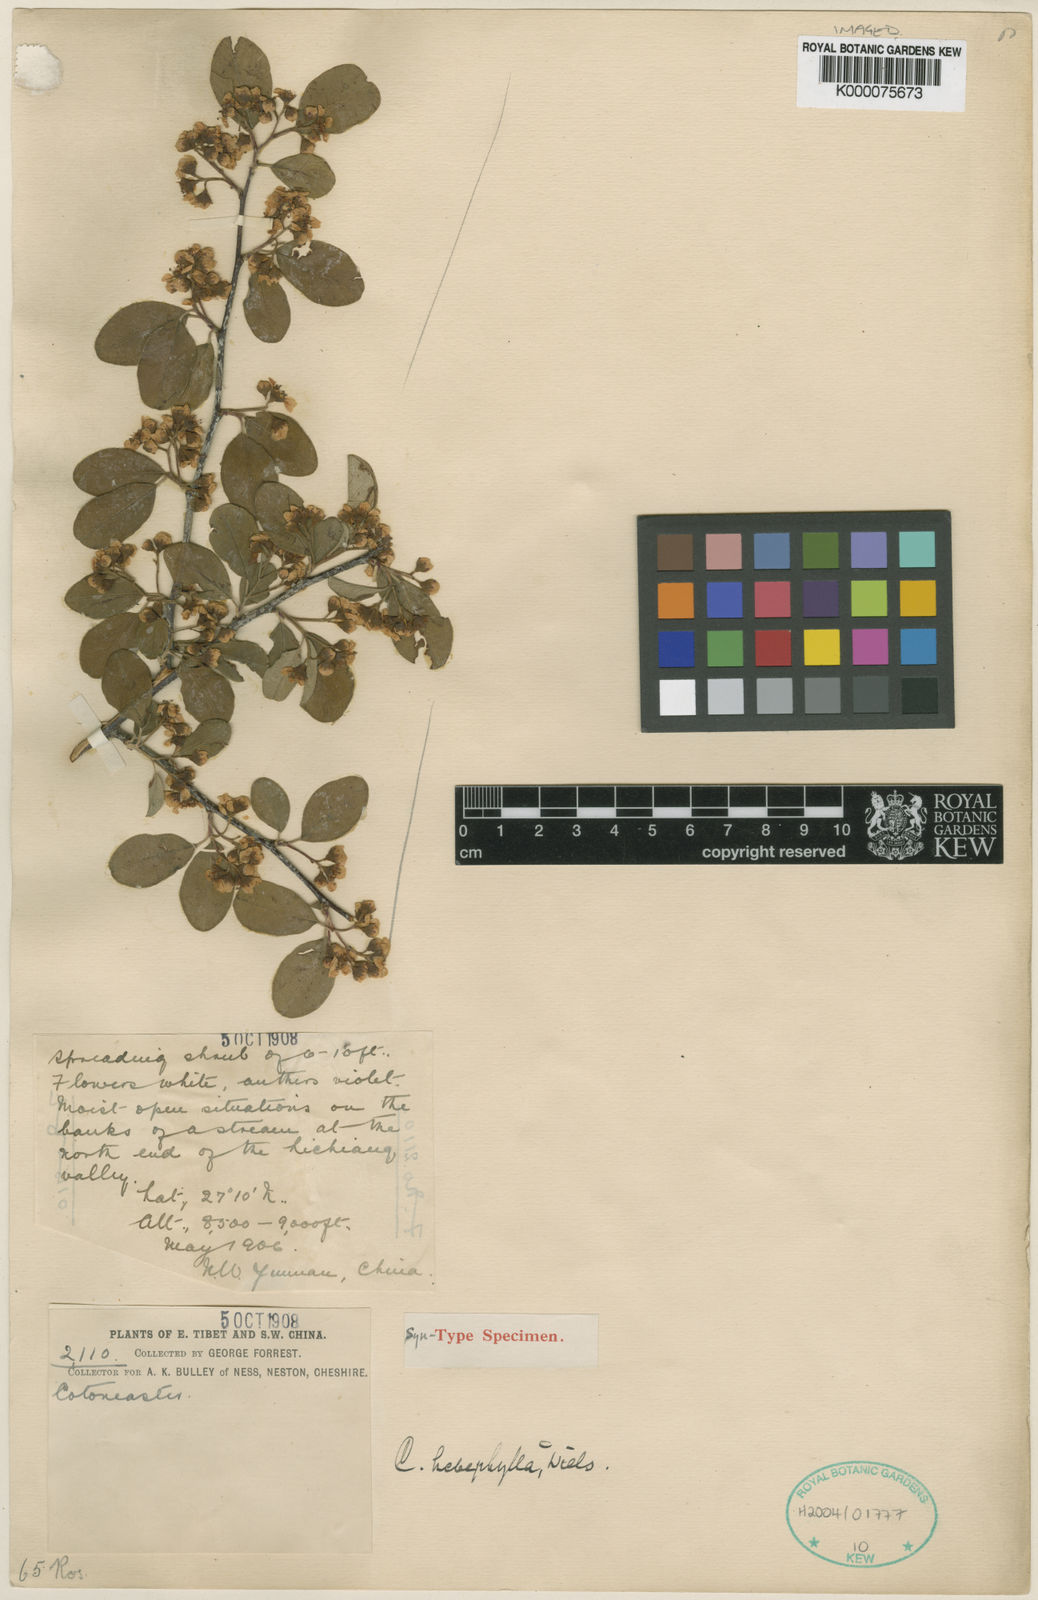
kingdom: Plantae
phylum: Tracheophyta
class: Magnoliopsida
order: Rosales
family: Rosaceae
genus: Cotoneaster
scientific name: Cotoneaster hebephyllus
